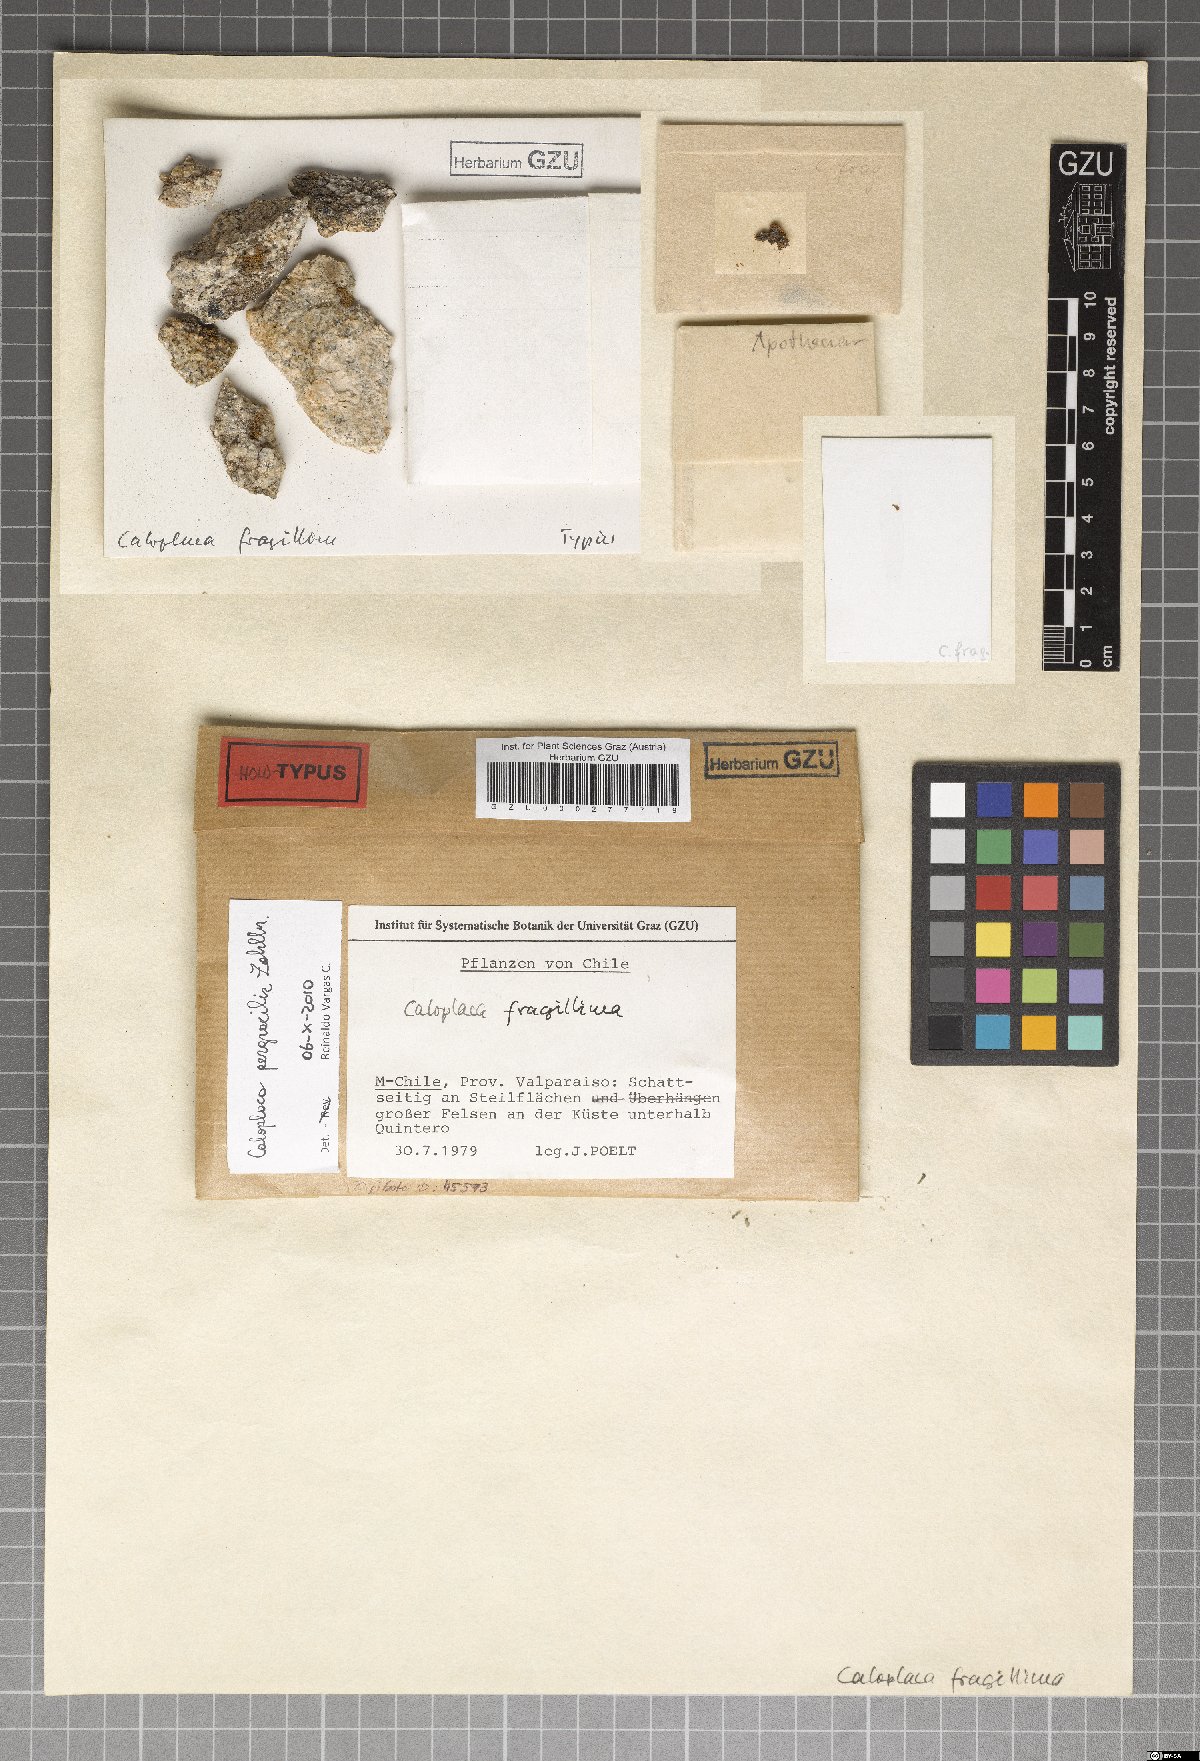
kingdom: Fungi
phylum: Ascomycota
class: Lecanoromycetes
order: Teloschistales
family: Teloschistaceae
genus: Caloplaca
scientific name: Caloplaca
